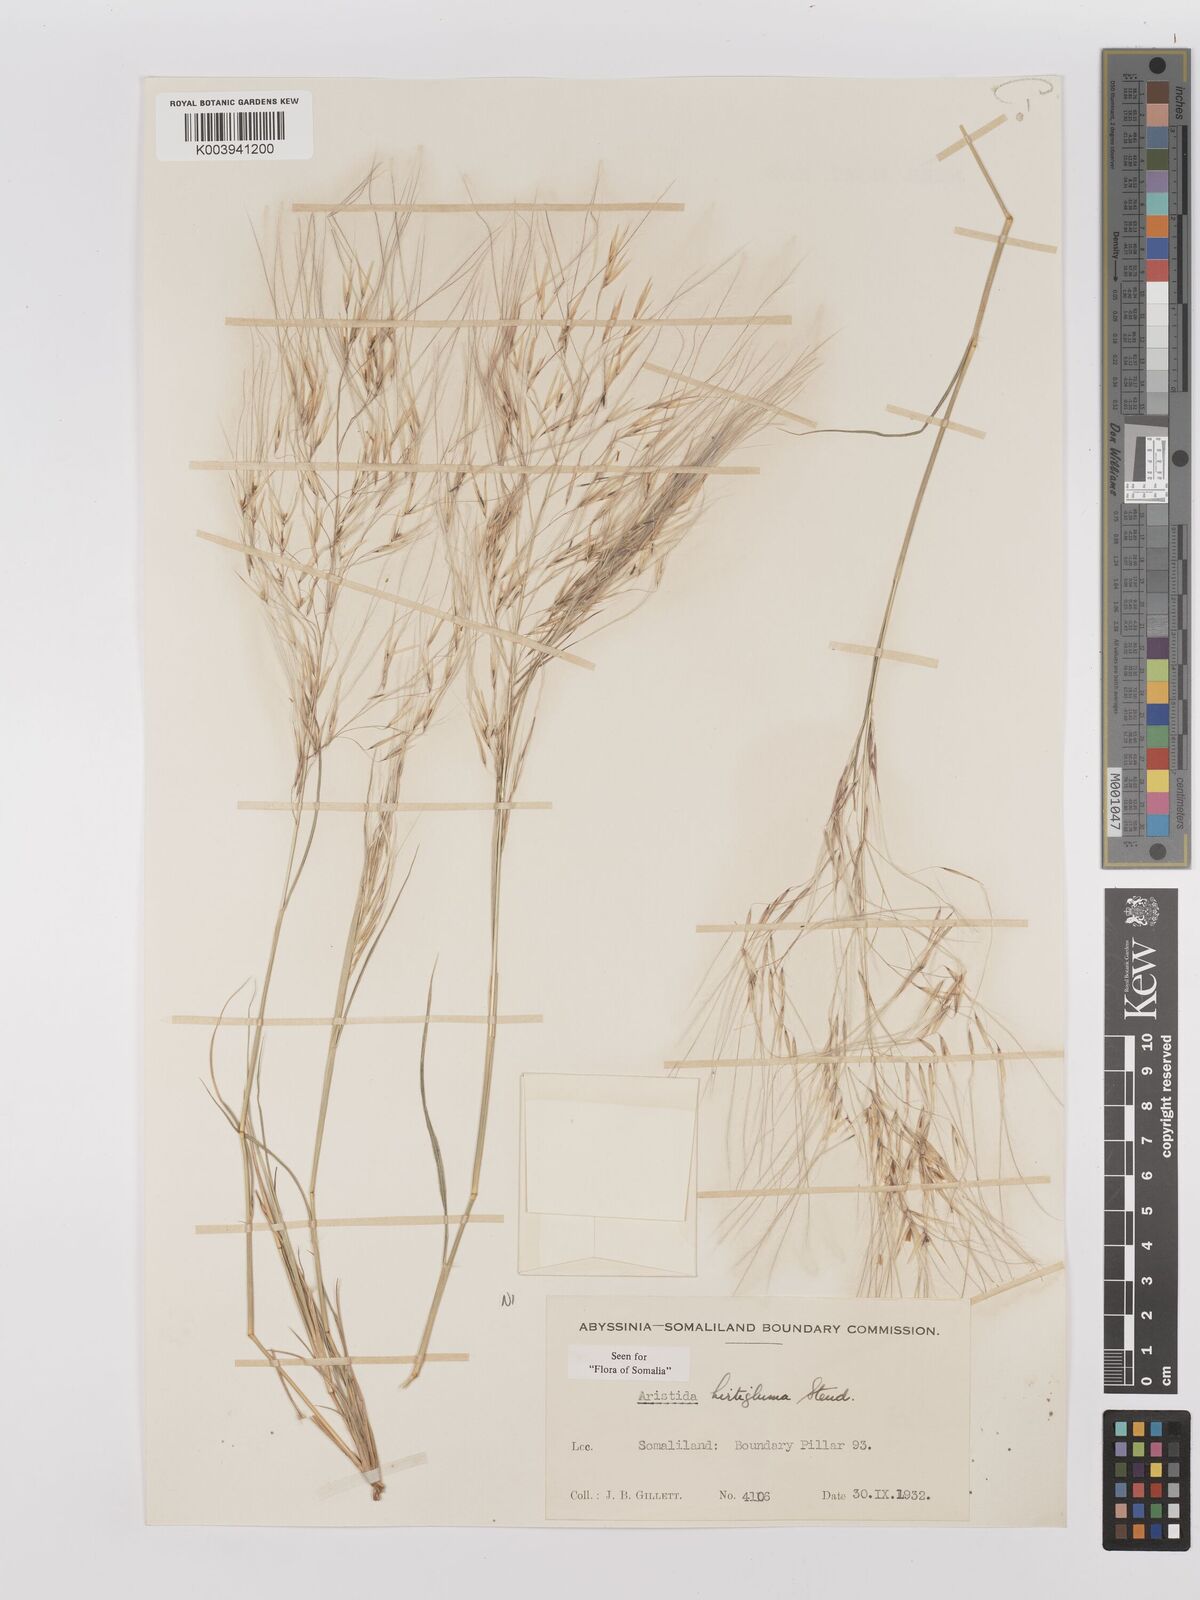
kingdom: Plantae
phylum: Tracheophyta
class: Liliopsida
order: Poales
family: Poaceae
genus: Stipagrostis
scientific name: Stipagrostis hirtigluma
